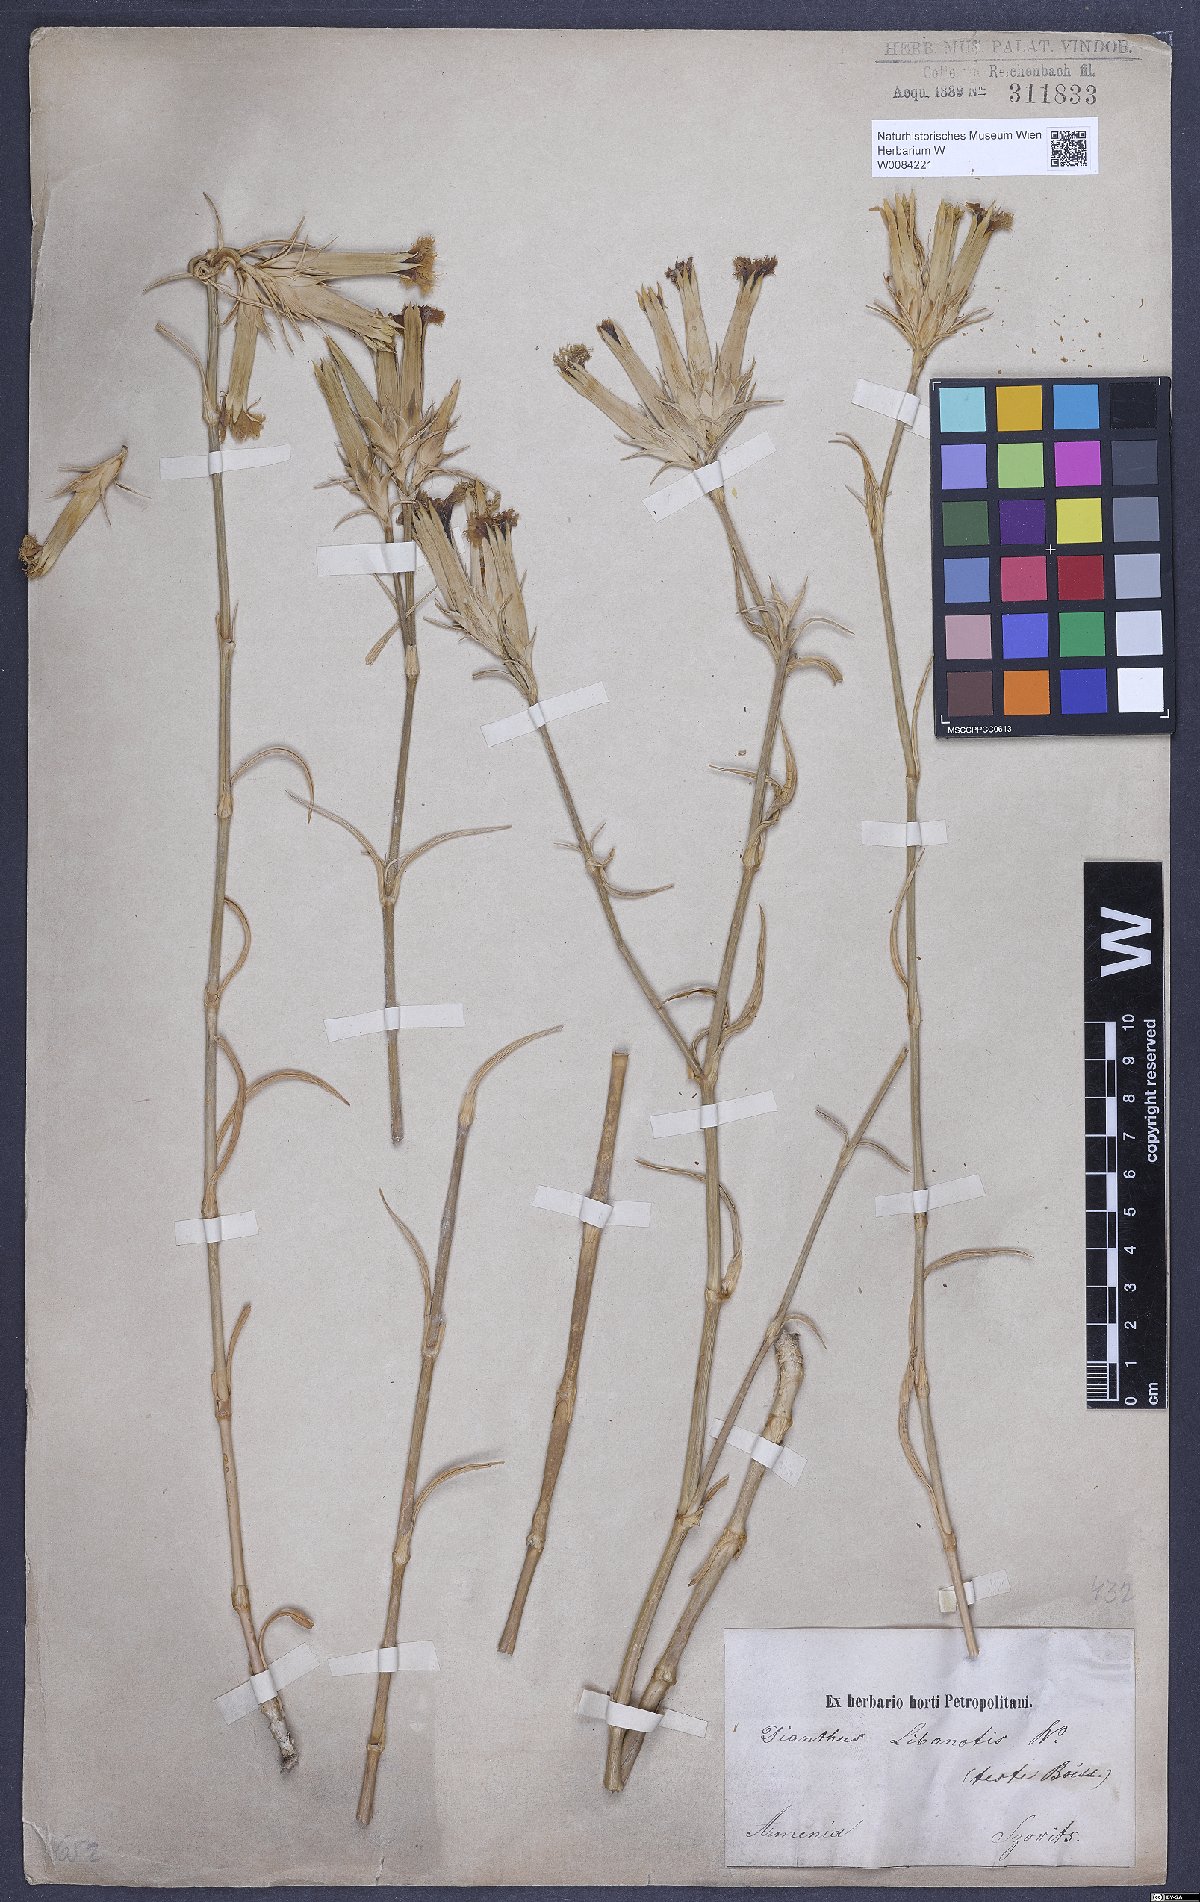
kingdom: Plantae
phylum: Tracheophyta
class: Magnoliopsida
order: Caryophyllales
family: Caryophyllaceae
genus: Dianthus
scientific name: Dianthus libanotis
